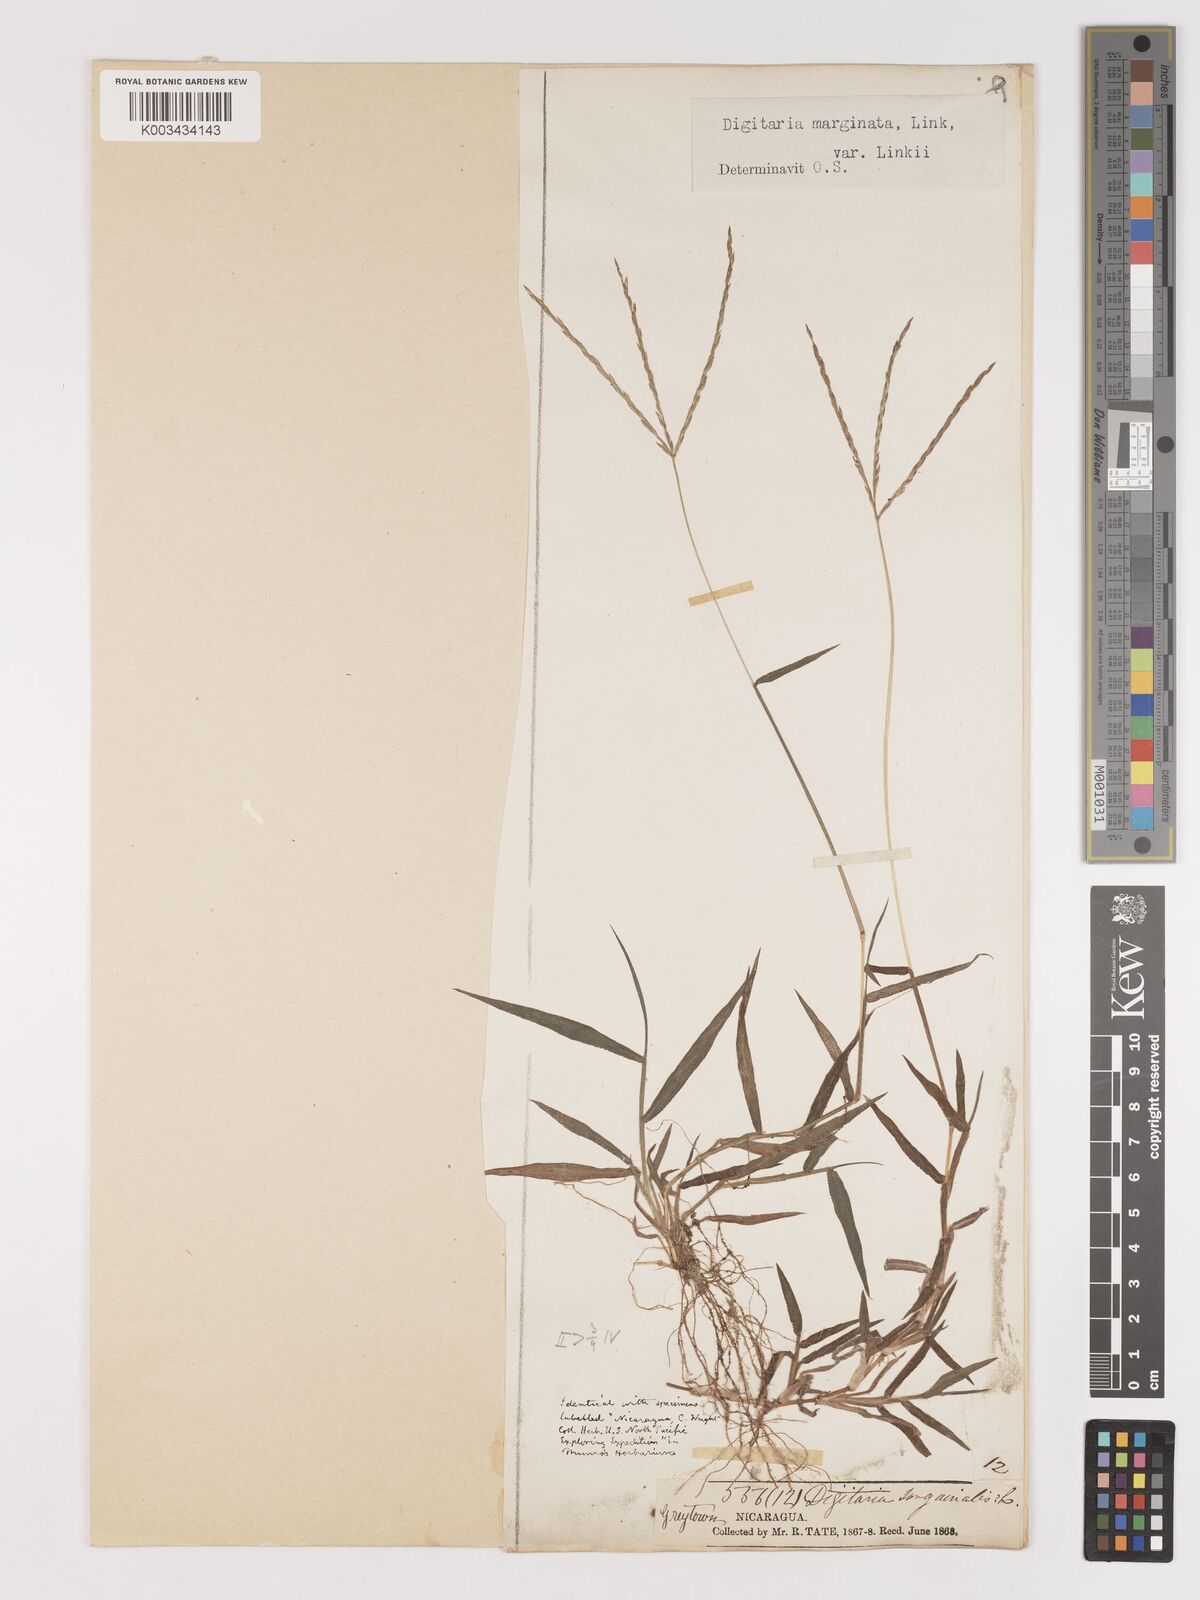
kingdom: Plantae
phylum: Tracheophyta
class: Liliopsida
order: Poales
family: Poaceae
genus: Digitaria
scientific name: Digitaria ciliaris
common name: Tropical finger-grass
